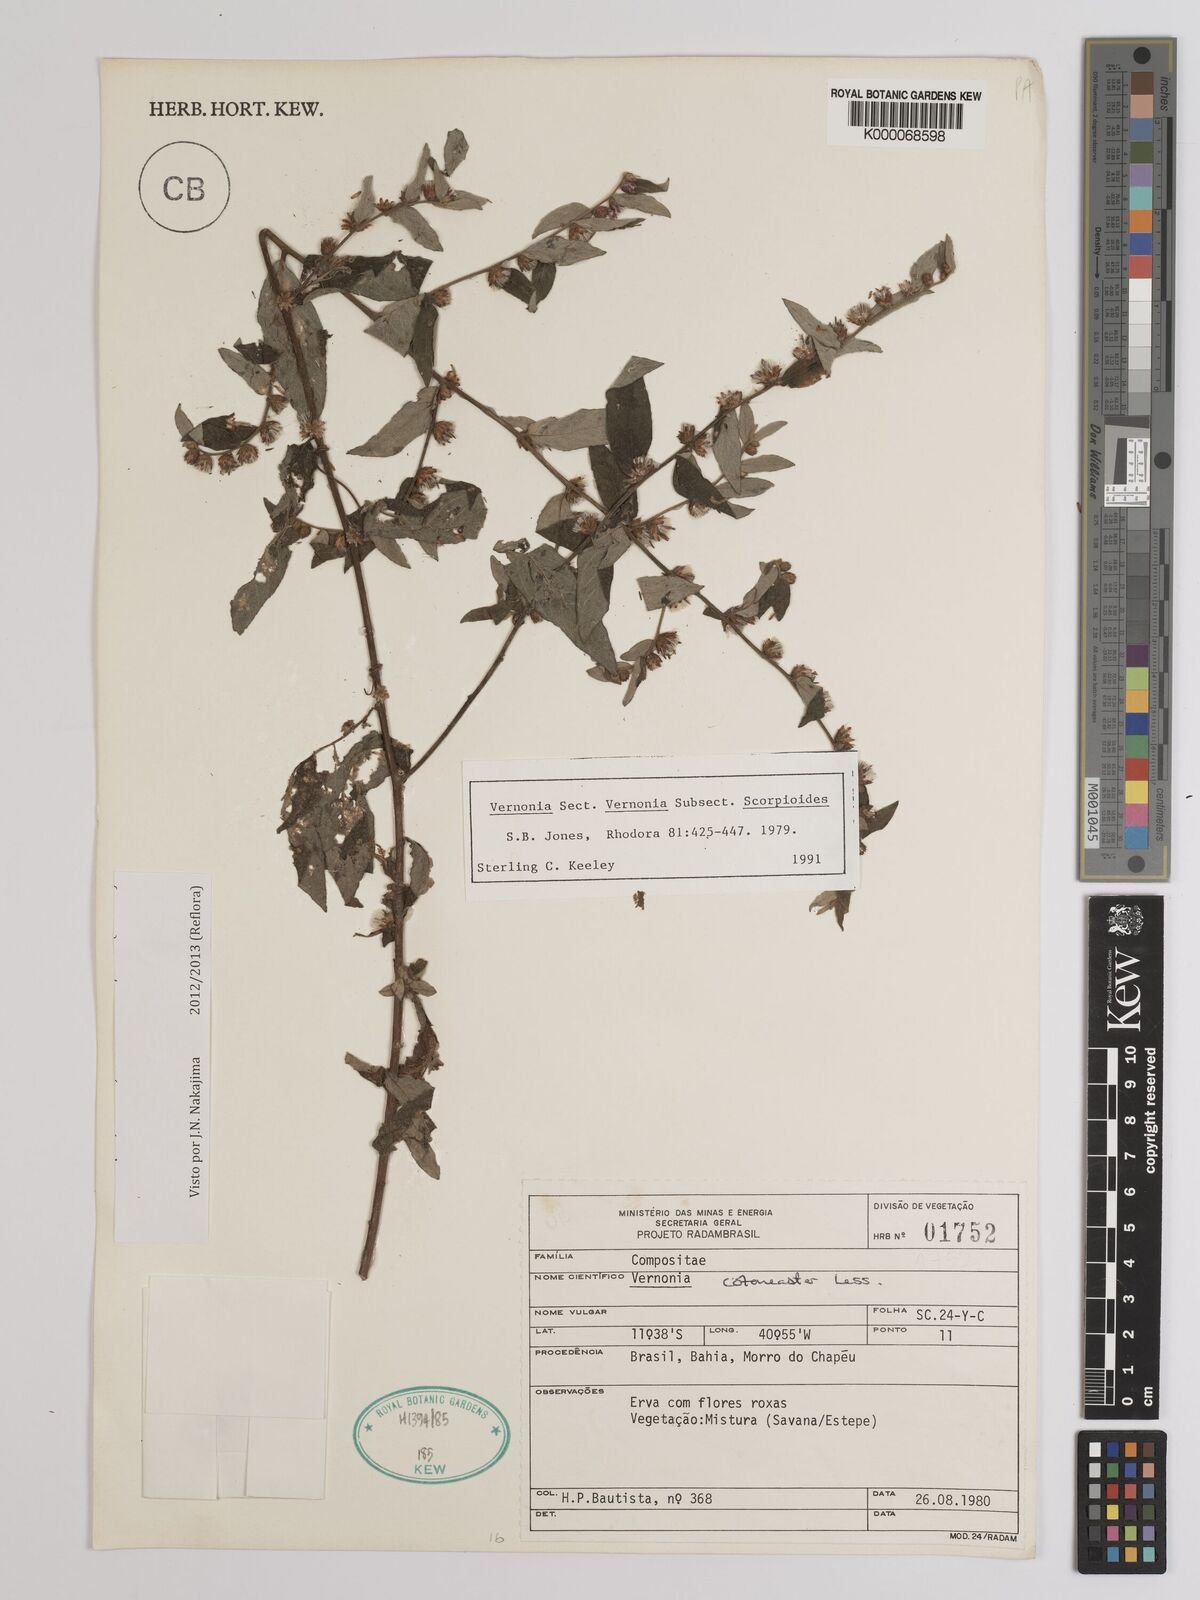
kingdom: Plantae
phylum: Tracheophyta
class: Magnoliopsida
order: Asterales
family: Asteraceae
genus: Lepidaploa
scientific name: Lepidaploa cotoneaster
